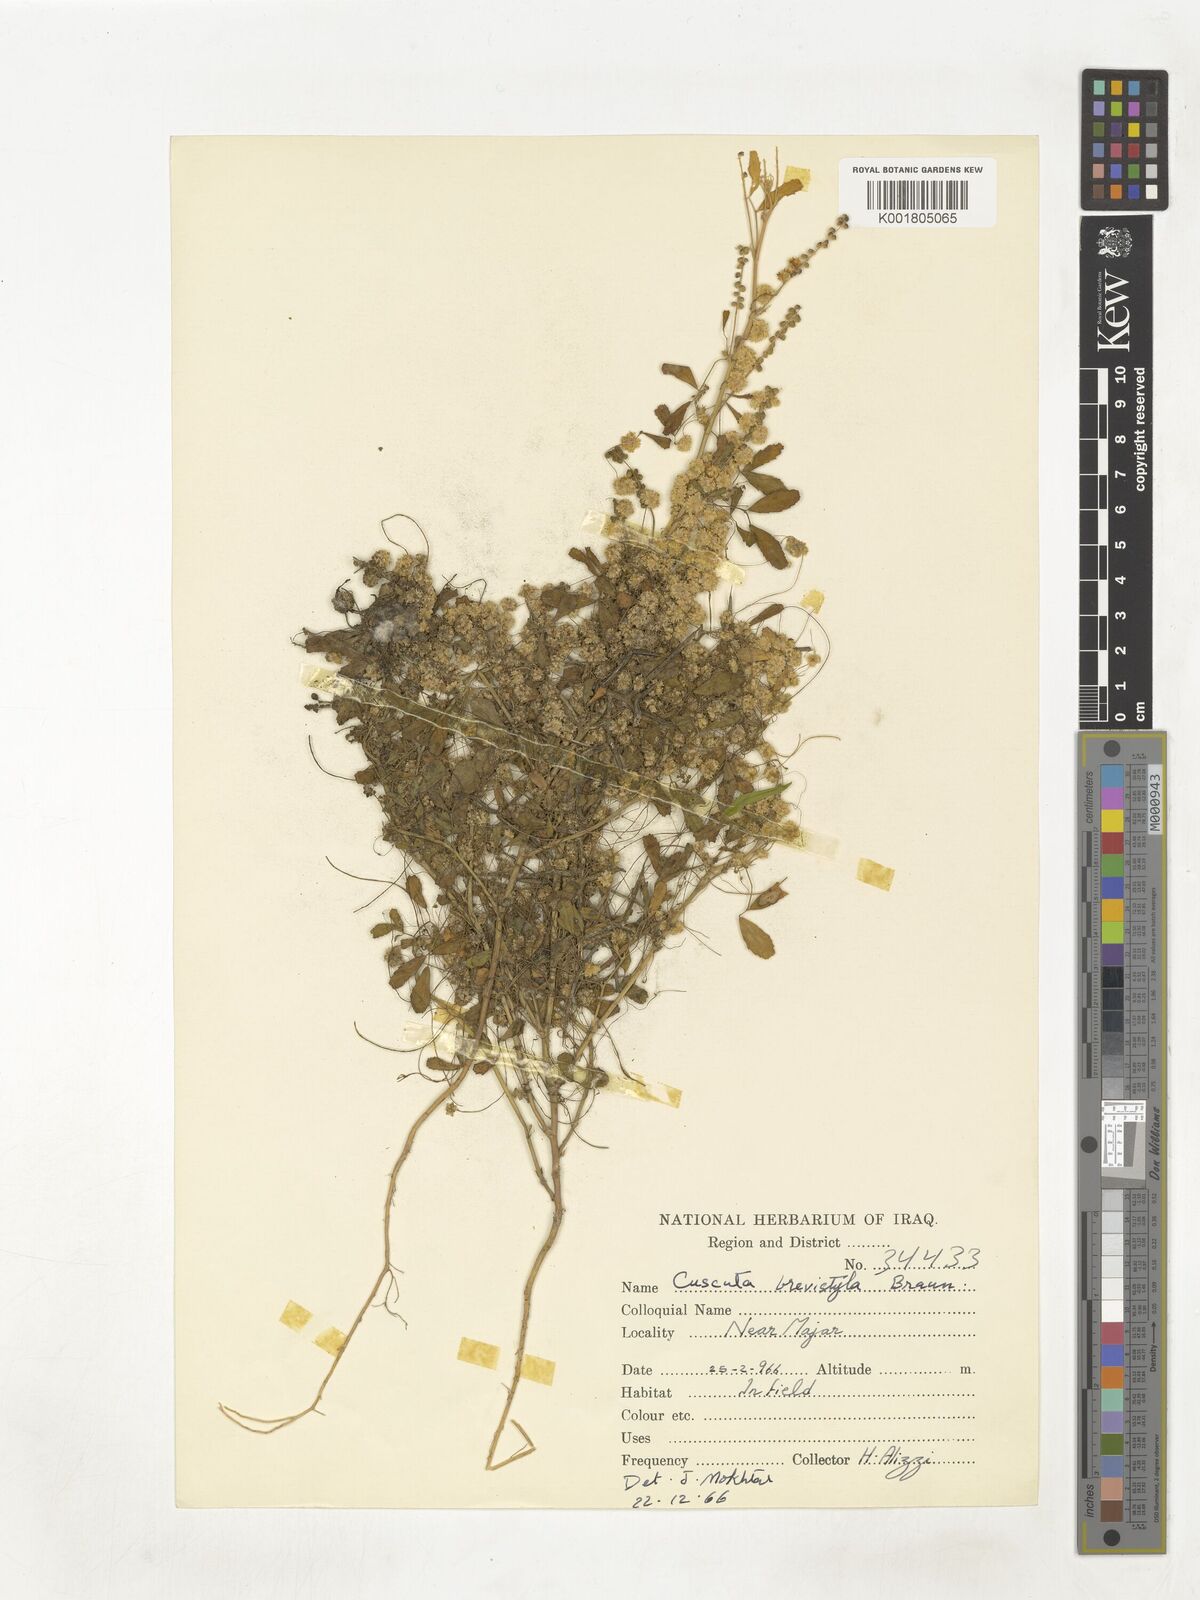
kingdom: Plantae
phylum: Tracheophyta
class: Magnoliopsida
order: Solanales
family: Convolvulaceae
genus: Cuscuta
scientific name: Cuscuta brevistyla
